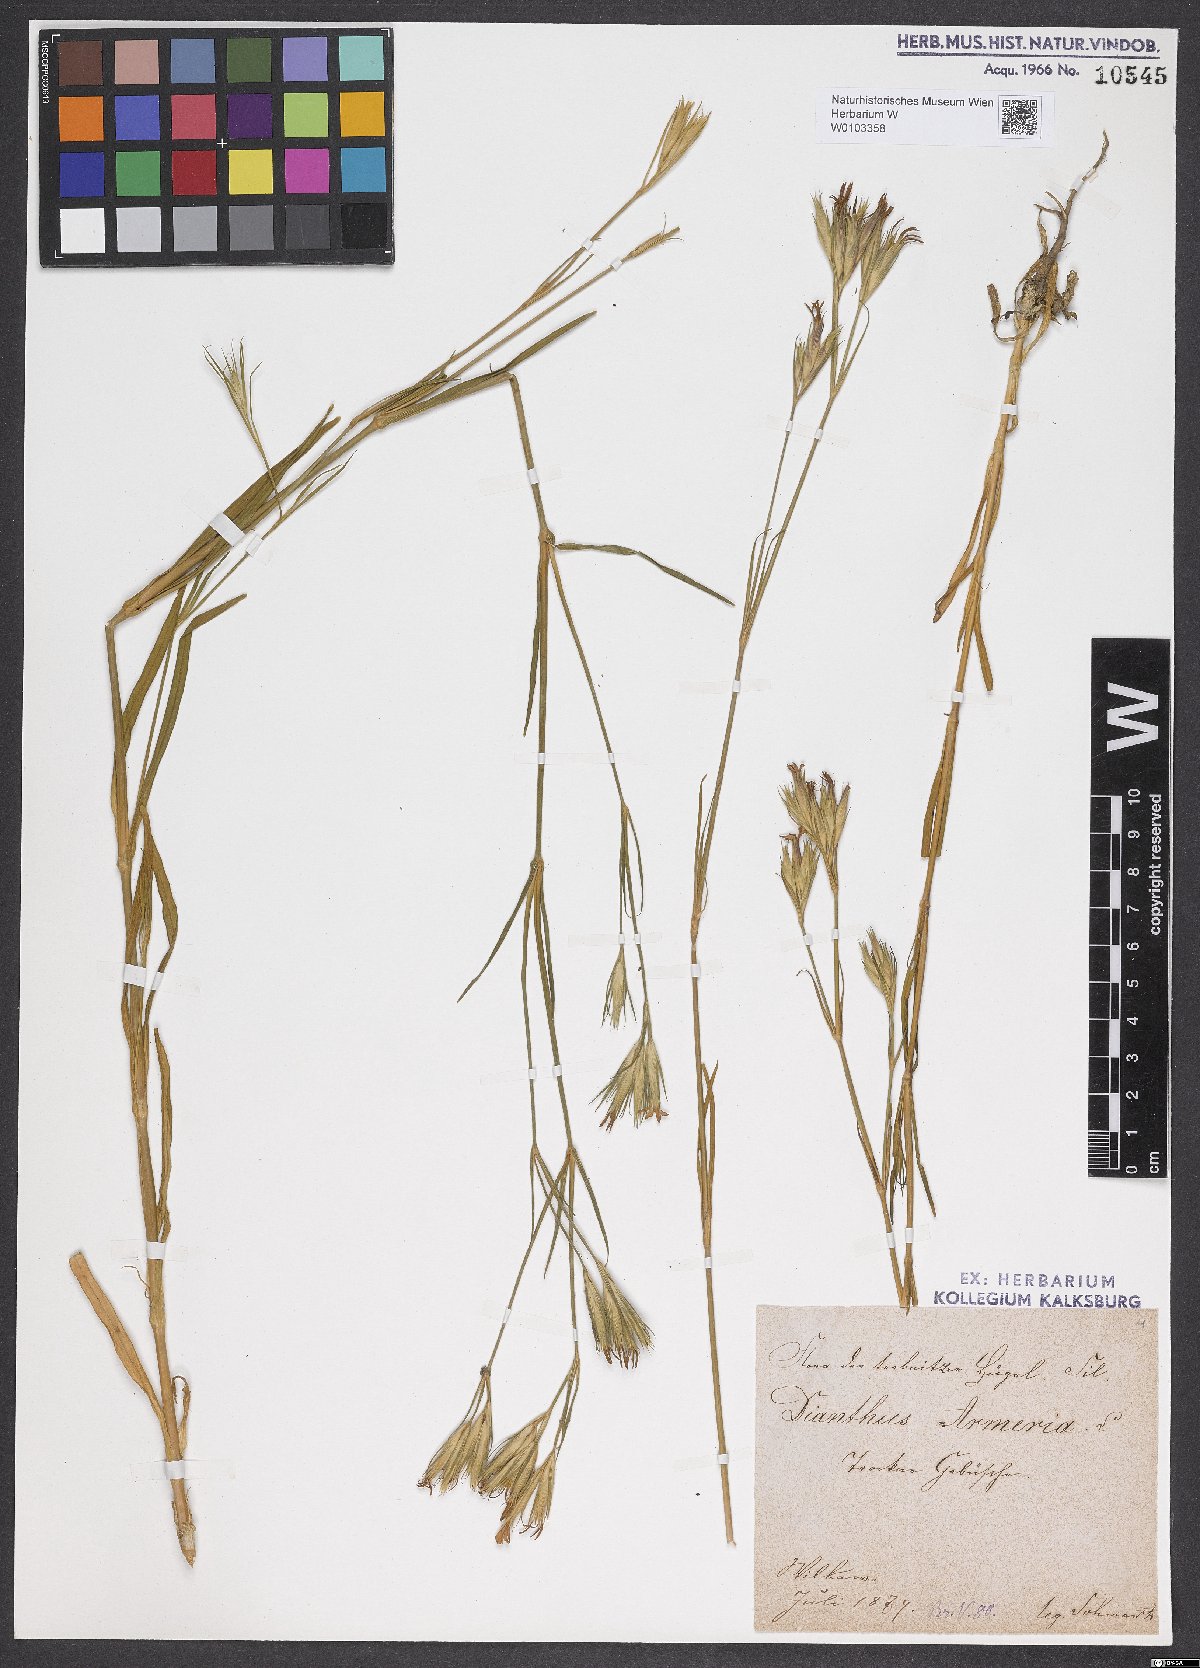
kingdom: Plantae
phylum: Tracheophyta
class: Magnoliopsida
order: Caryophyllales
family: Caryophyllaceae
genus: Dianthus
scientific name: Dianthus armeria
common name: Deptford pink
